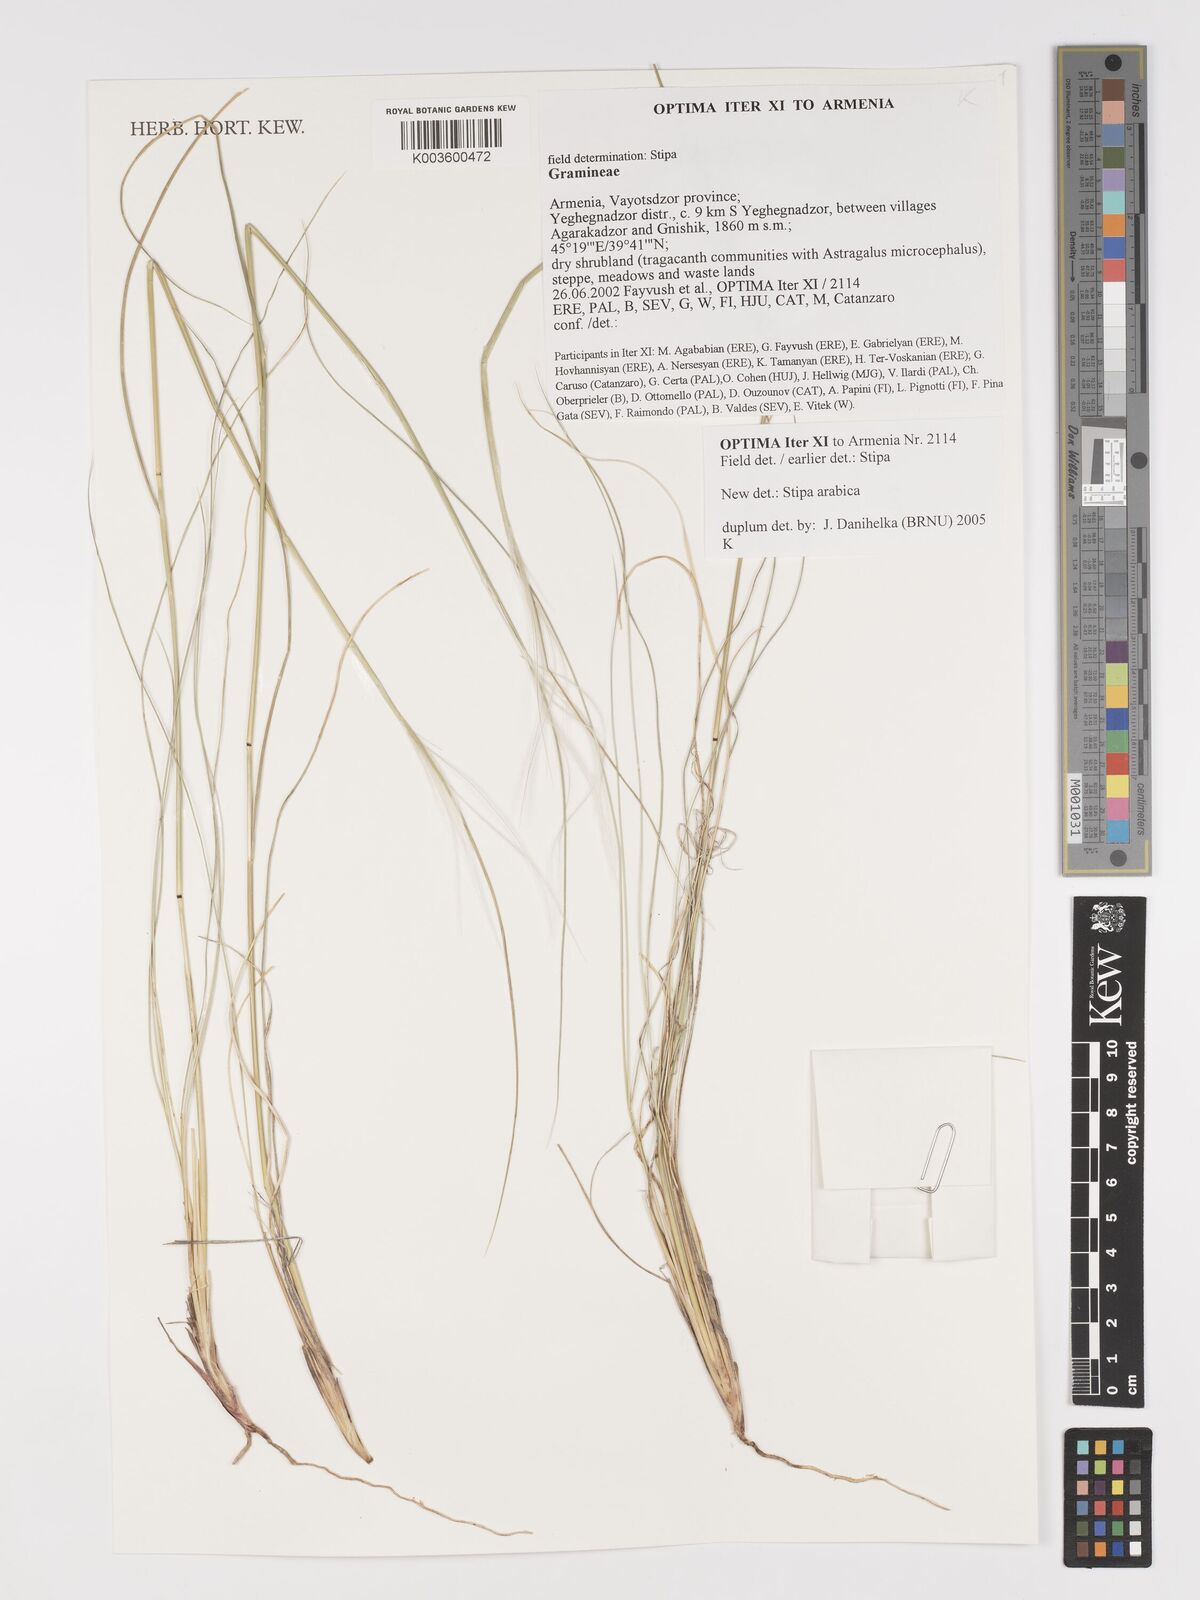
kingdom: Plantae
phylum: Tracheophyta
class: Liliopsida
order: Poales
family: Poaceae
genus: Stipa
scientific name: Stipa arabica
